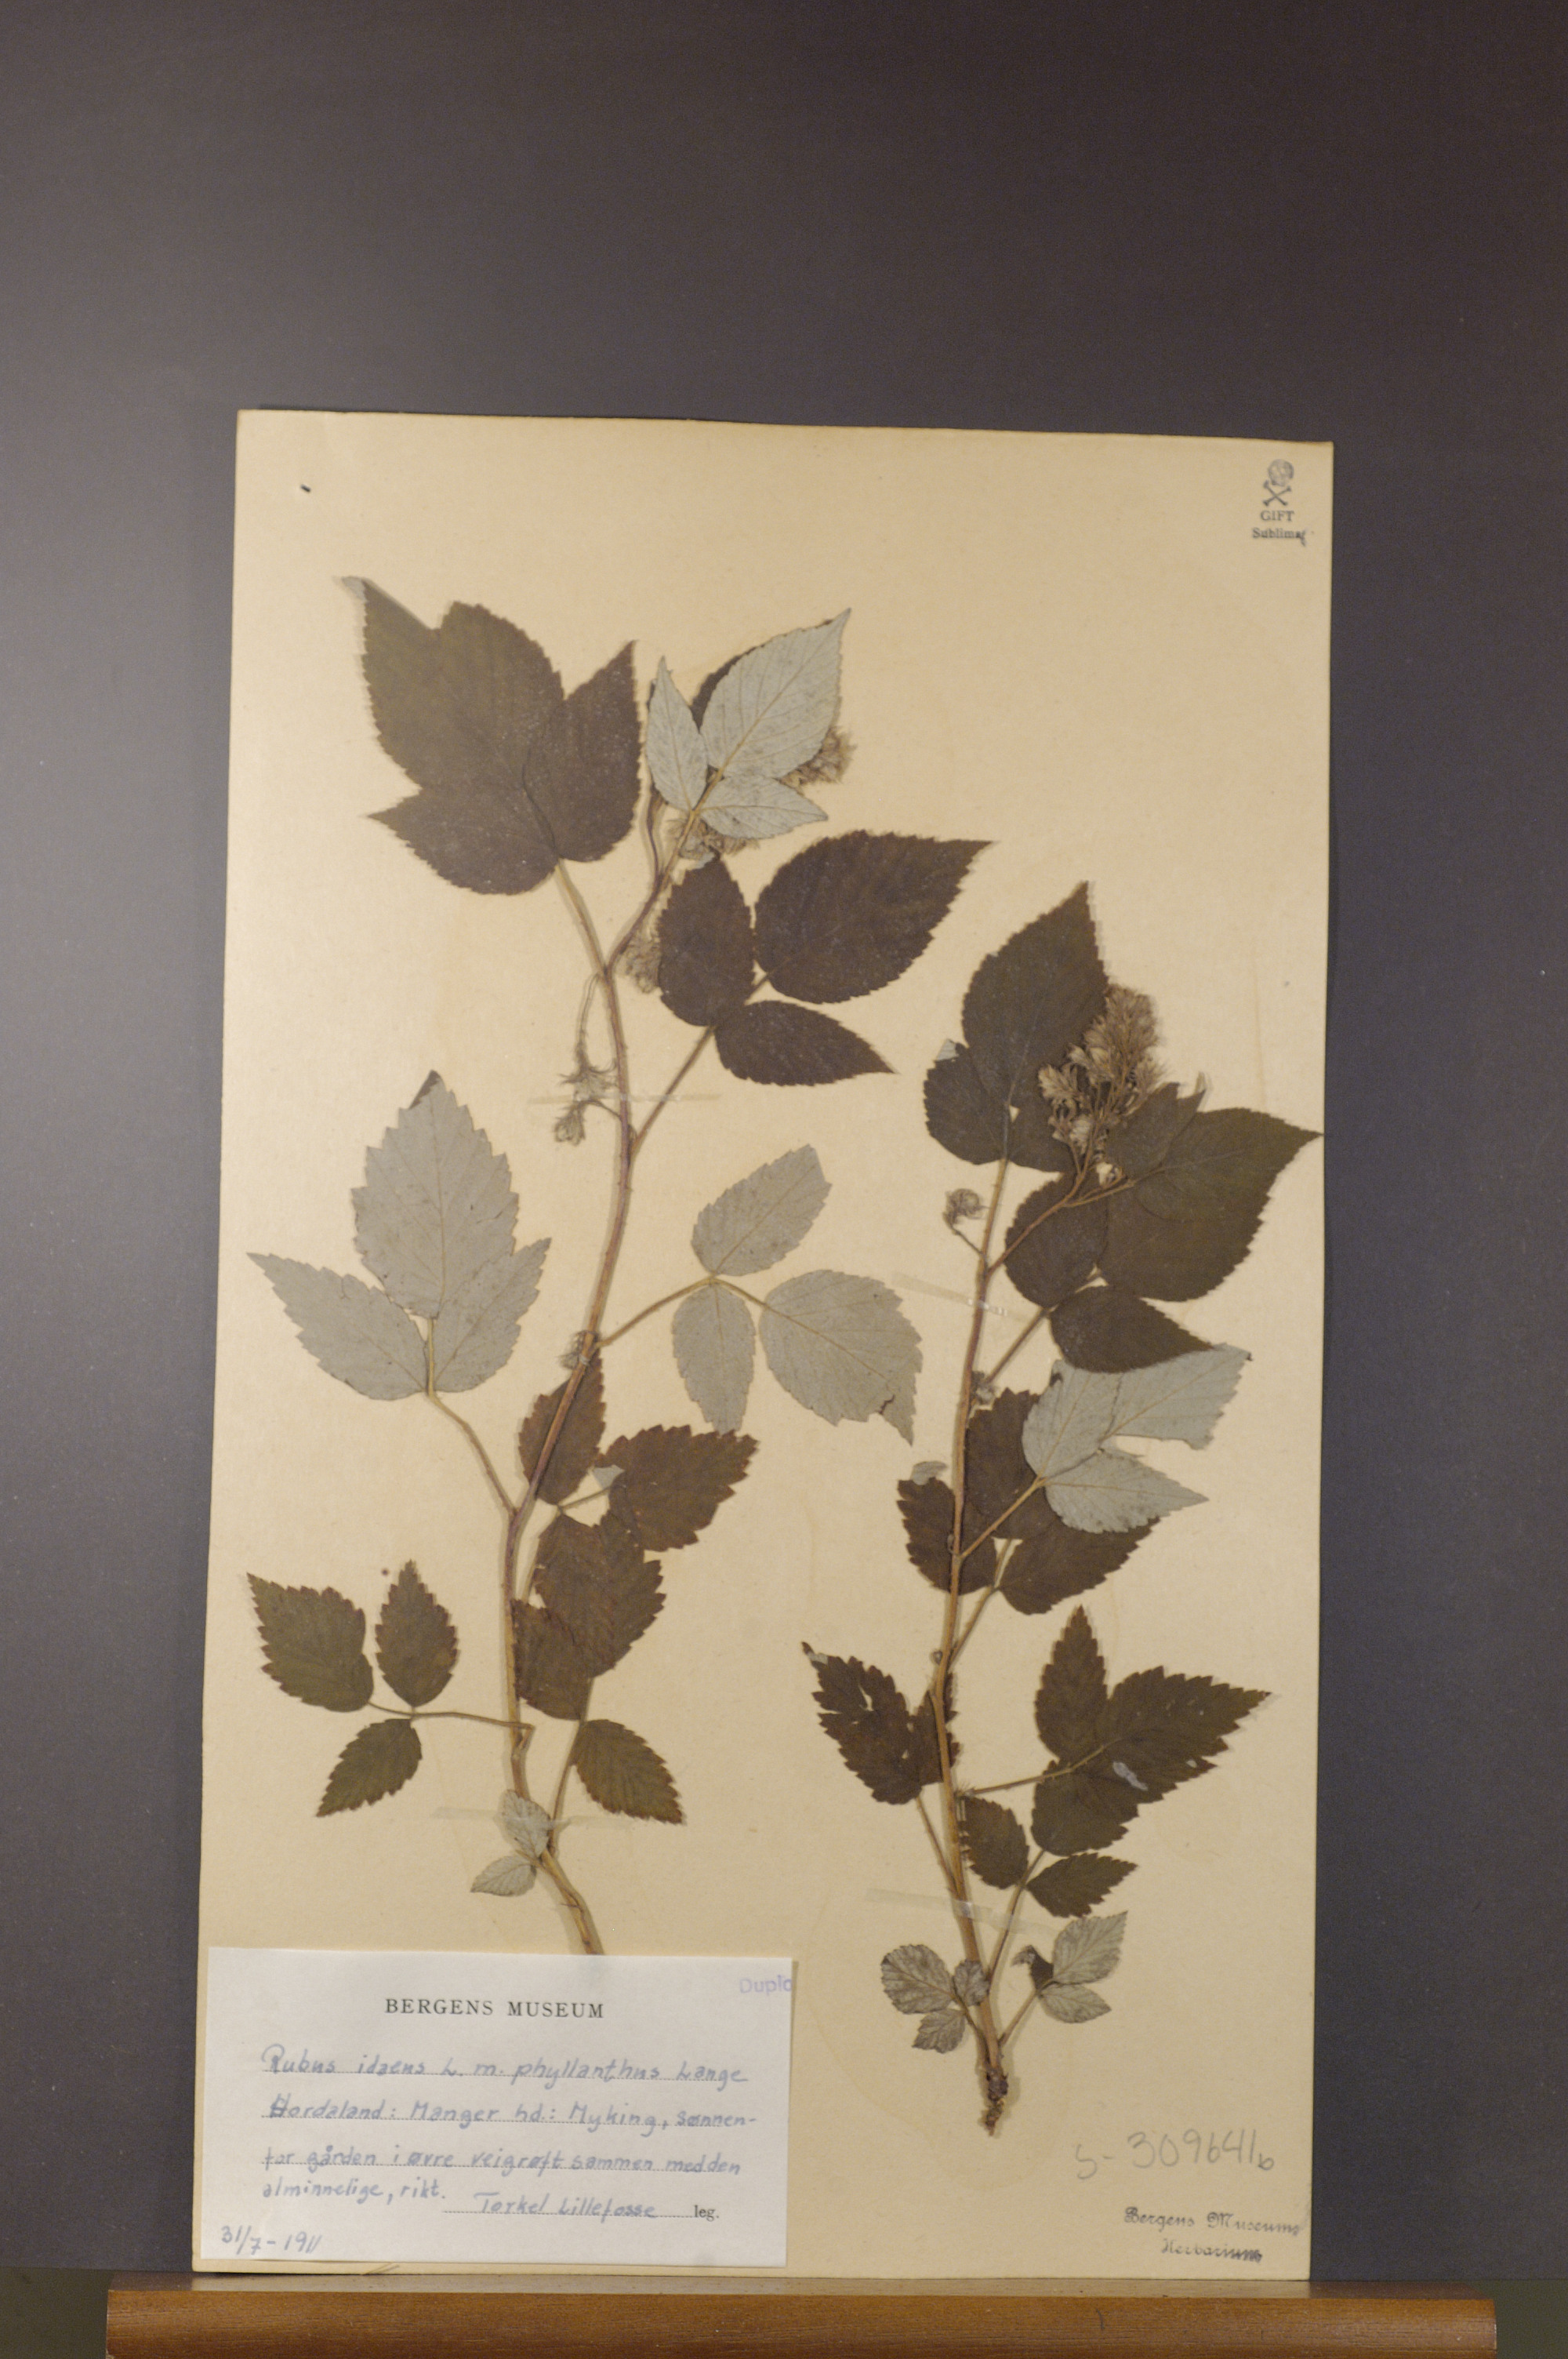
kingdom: Plantae
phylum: Tracheophyta
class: Magnoliopsida
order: Rosales
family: Rosaceae
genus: Rubus
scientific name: Rubus idaeus
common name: Raspberry
